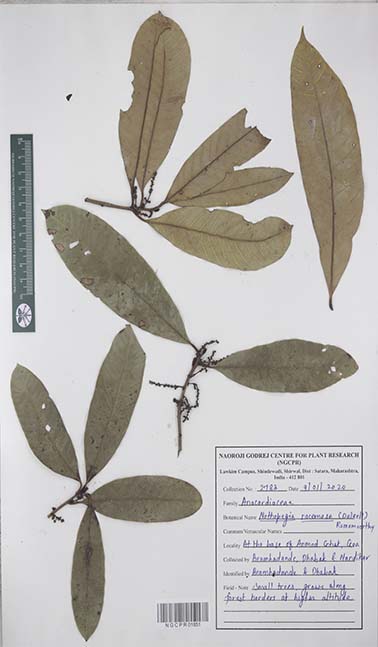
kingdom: Plantae
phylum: Tracheophyta
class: Magnoliopsida
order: Sapindales
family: Anacardiaceae
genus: Nothopegia
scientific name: Nothopegia castaneifolia
